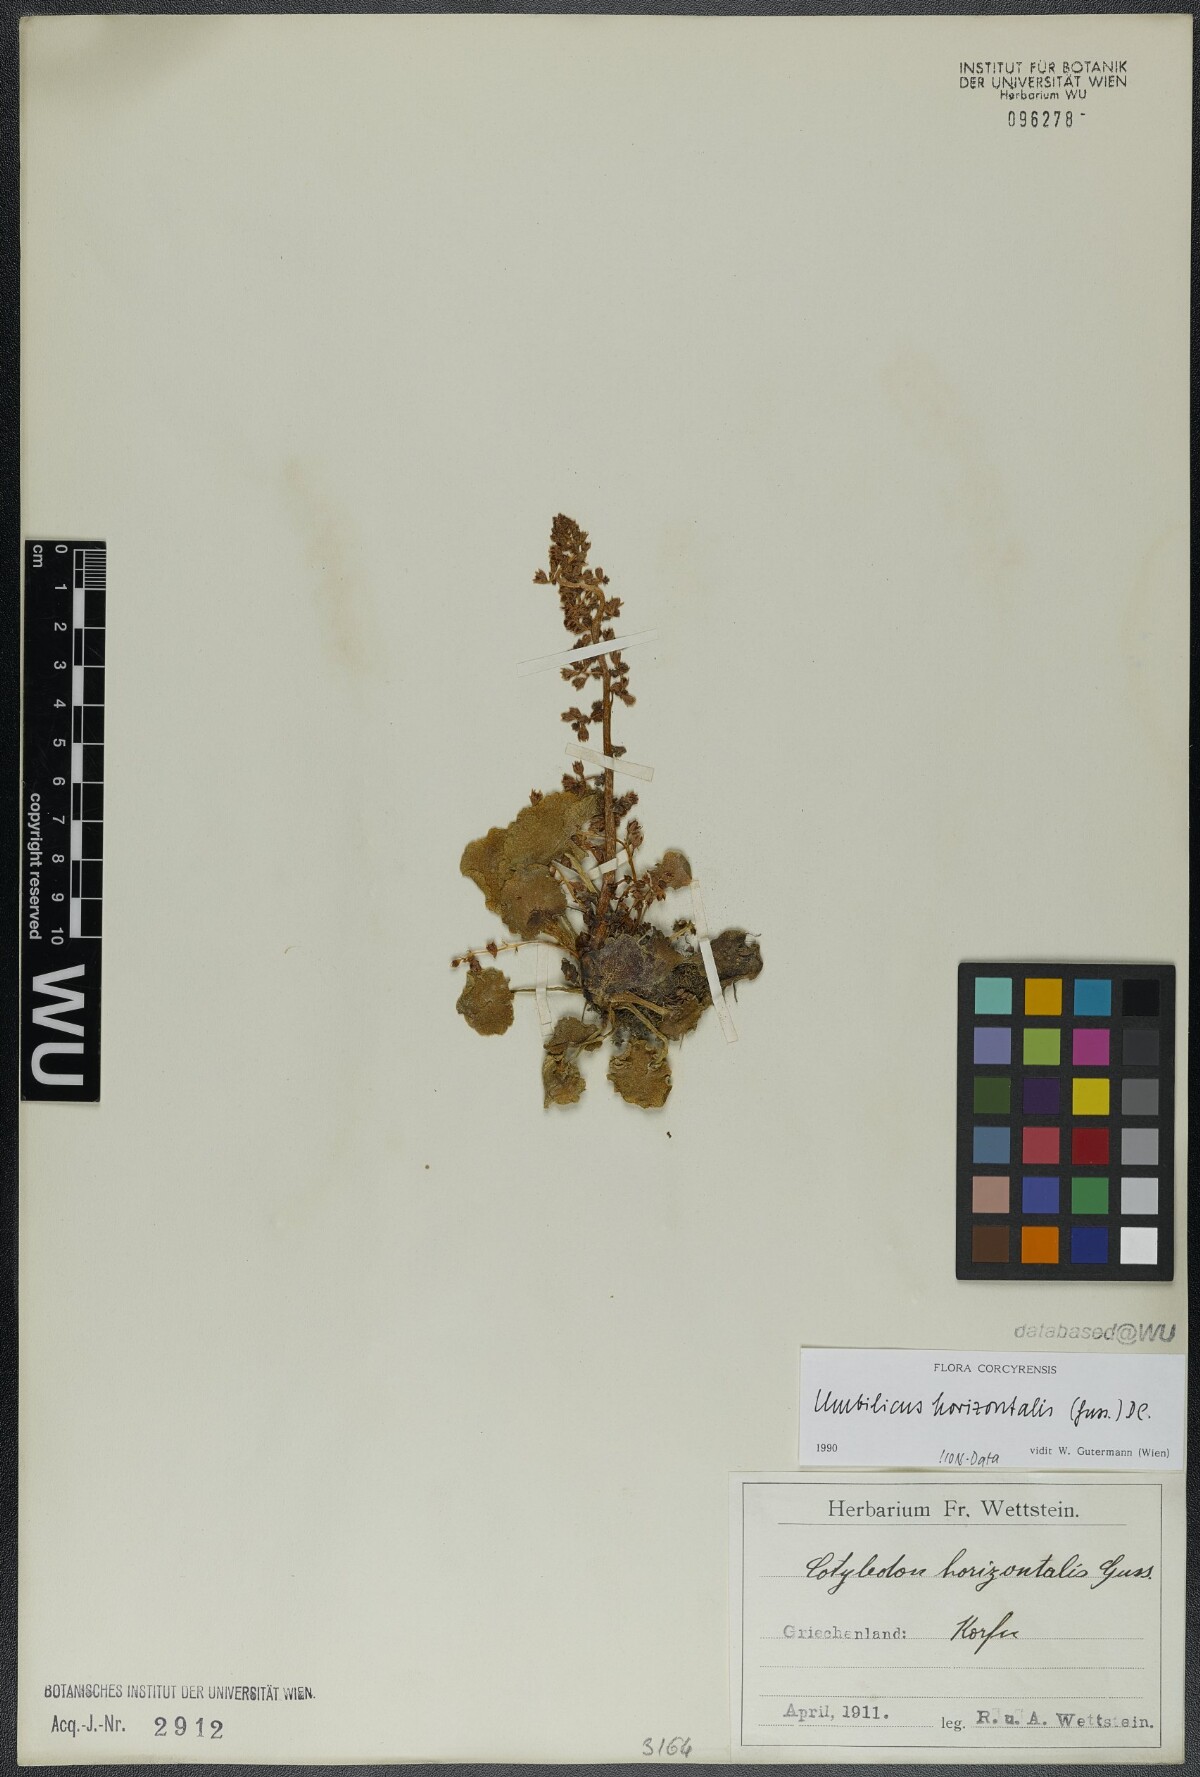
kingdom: Plantae
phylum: Tracheophyta
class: Magnoliopsida
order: Saxifragales
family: Crassulaceae
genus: Umbilicus
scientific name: Umbilicus horizontalis
